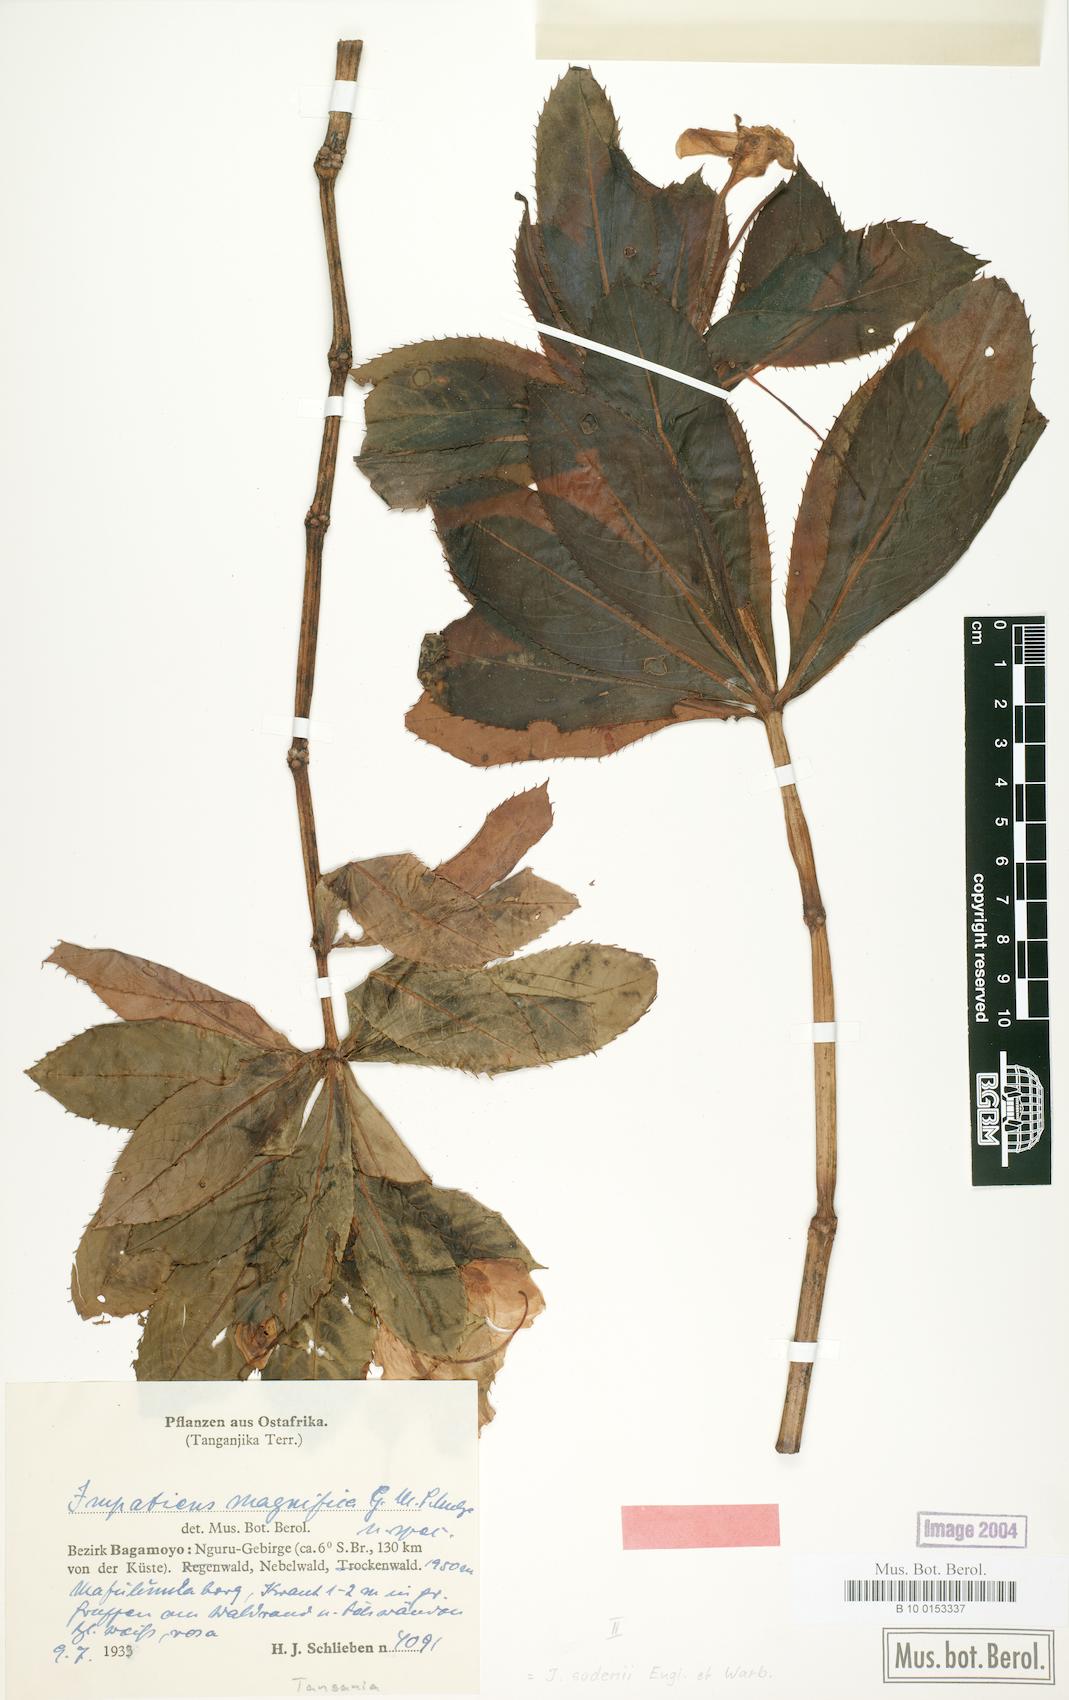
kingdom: Plantae
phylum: Tracheophyta
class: Magnoliopsida
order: Ericales
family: Balsaminaceae
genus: Impatiens
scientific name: Impatiens sodenii
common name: Oliver's touch-me-not
